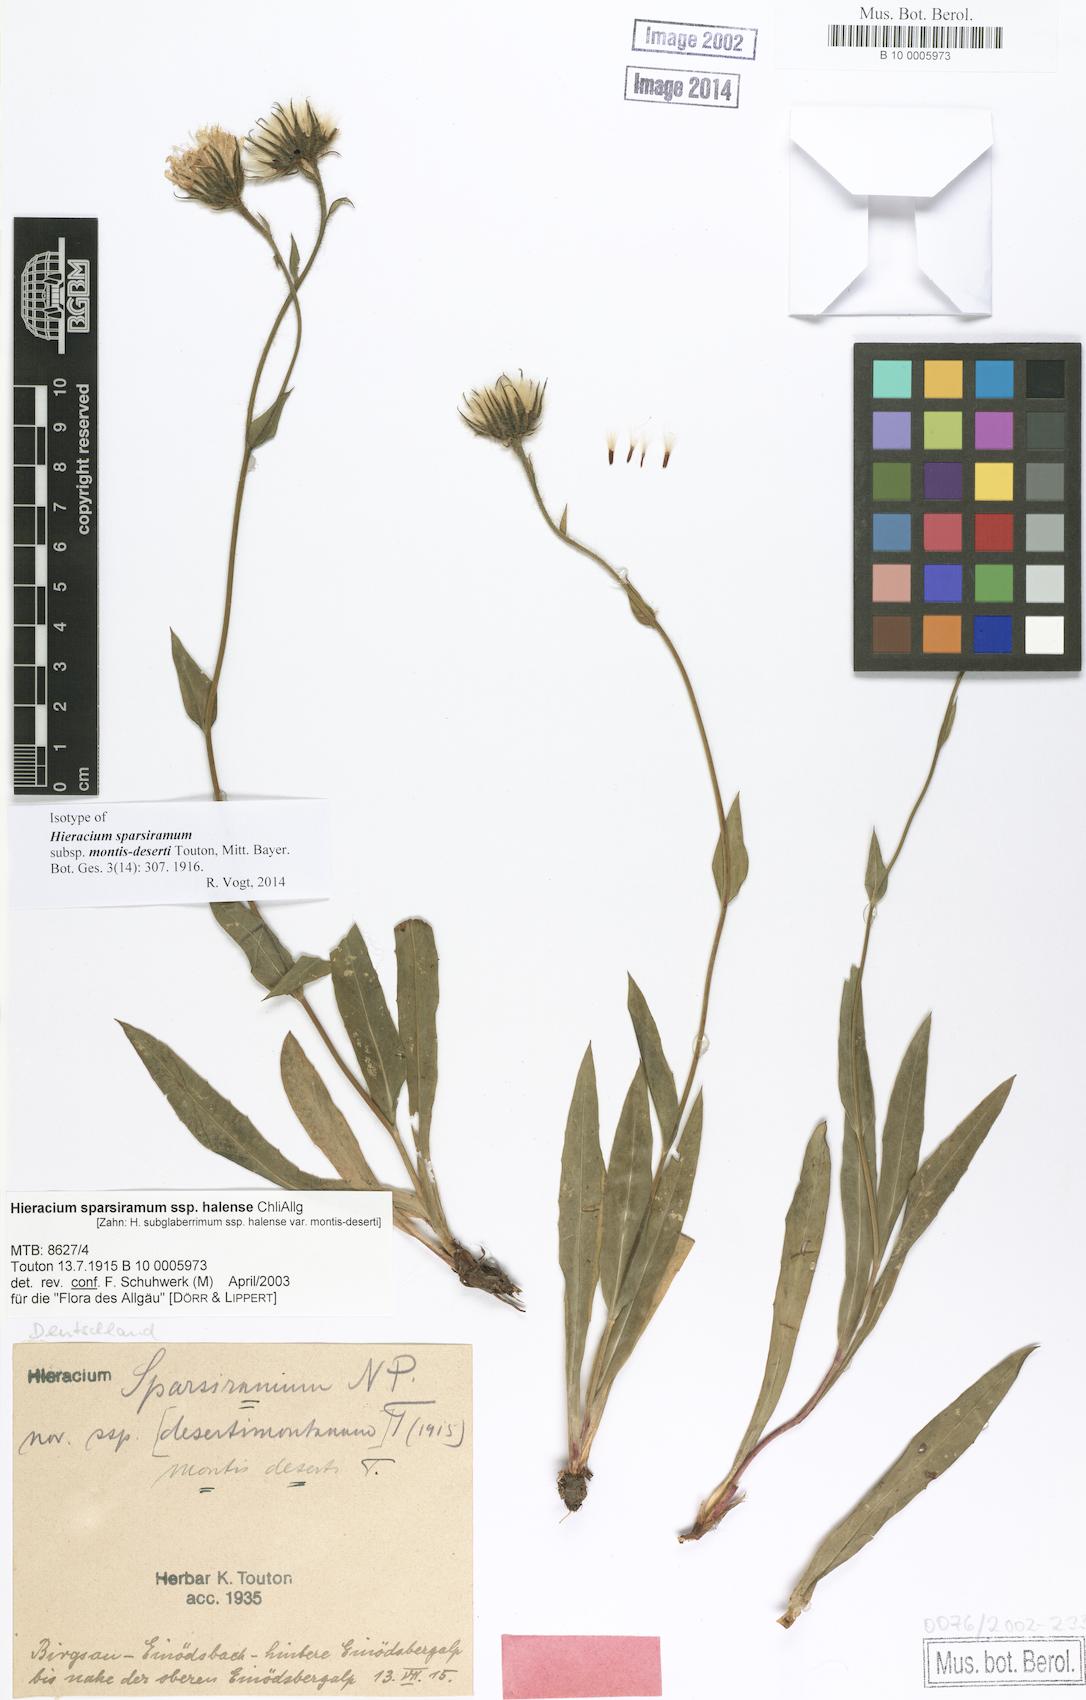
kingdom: Plantae
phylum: Tracheophyta
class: Magnoliopsida
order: Asterales
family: Asteraceae
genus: Hieracium
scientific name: Hieracium sparsiramum
